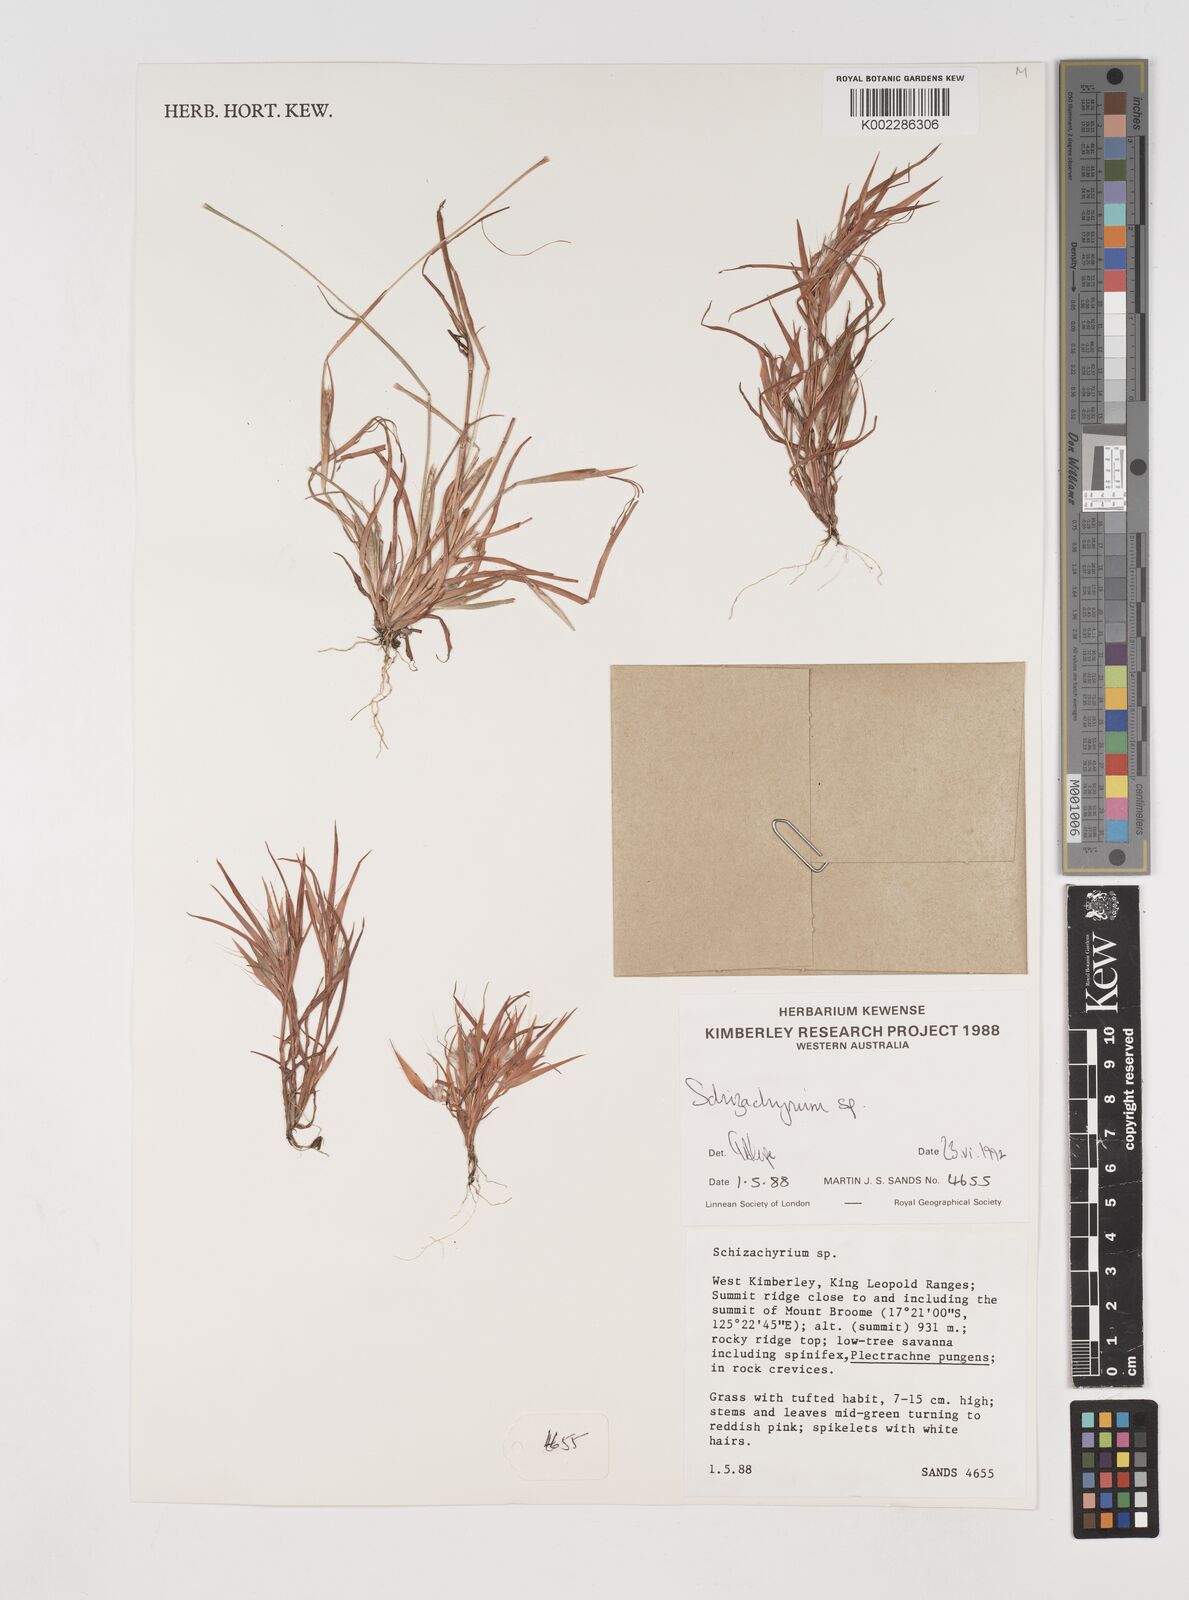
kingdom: Plantae
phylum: Tracheophyta
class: Liliopsida
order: Poales
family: Poaceae
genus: Schizachyrium
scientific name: Schizachyrium
